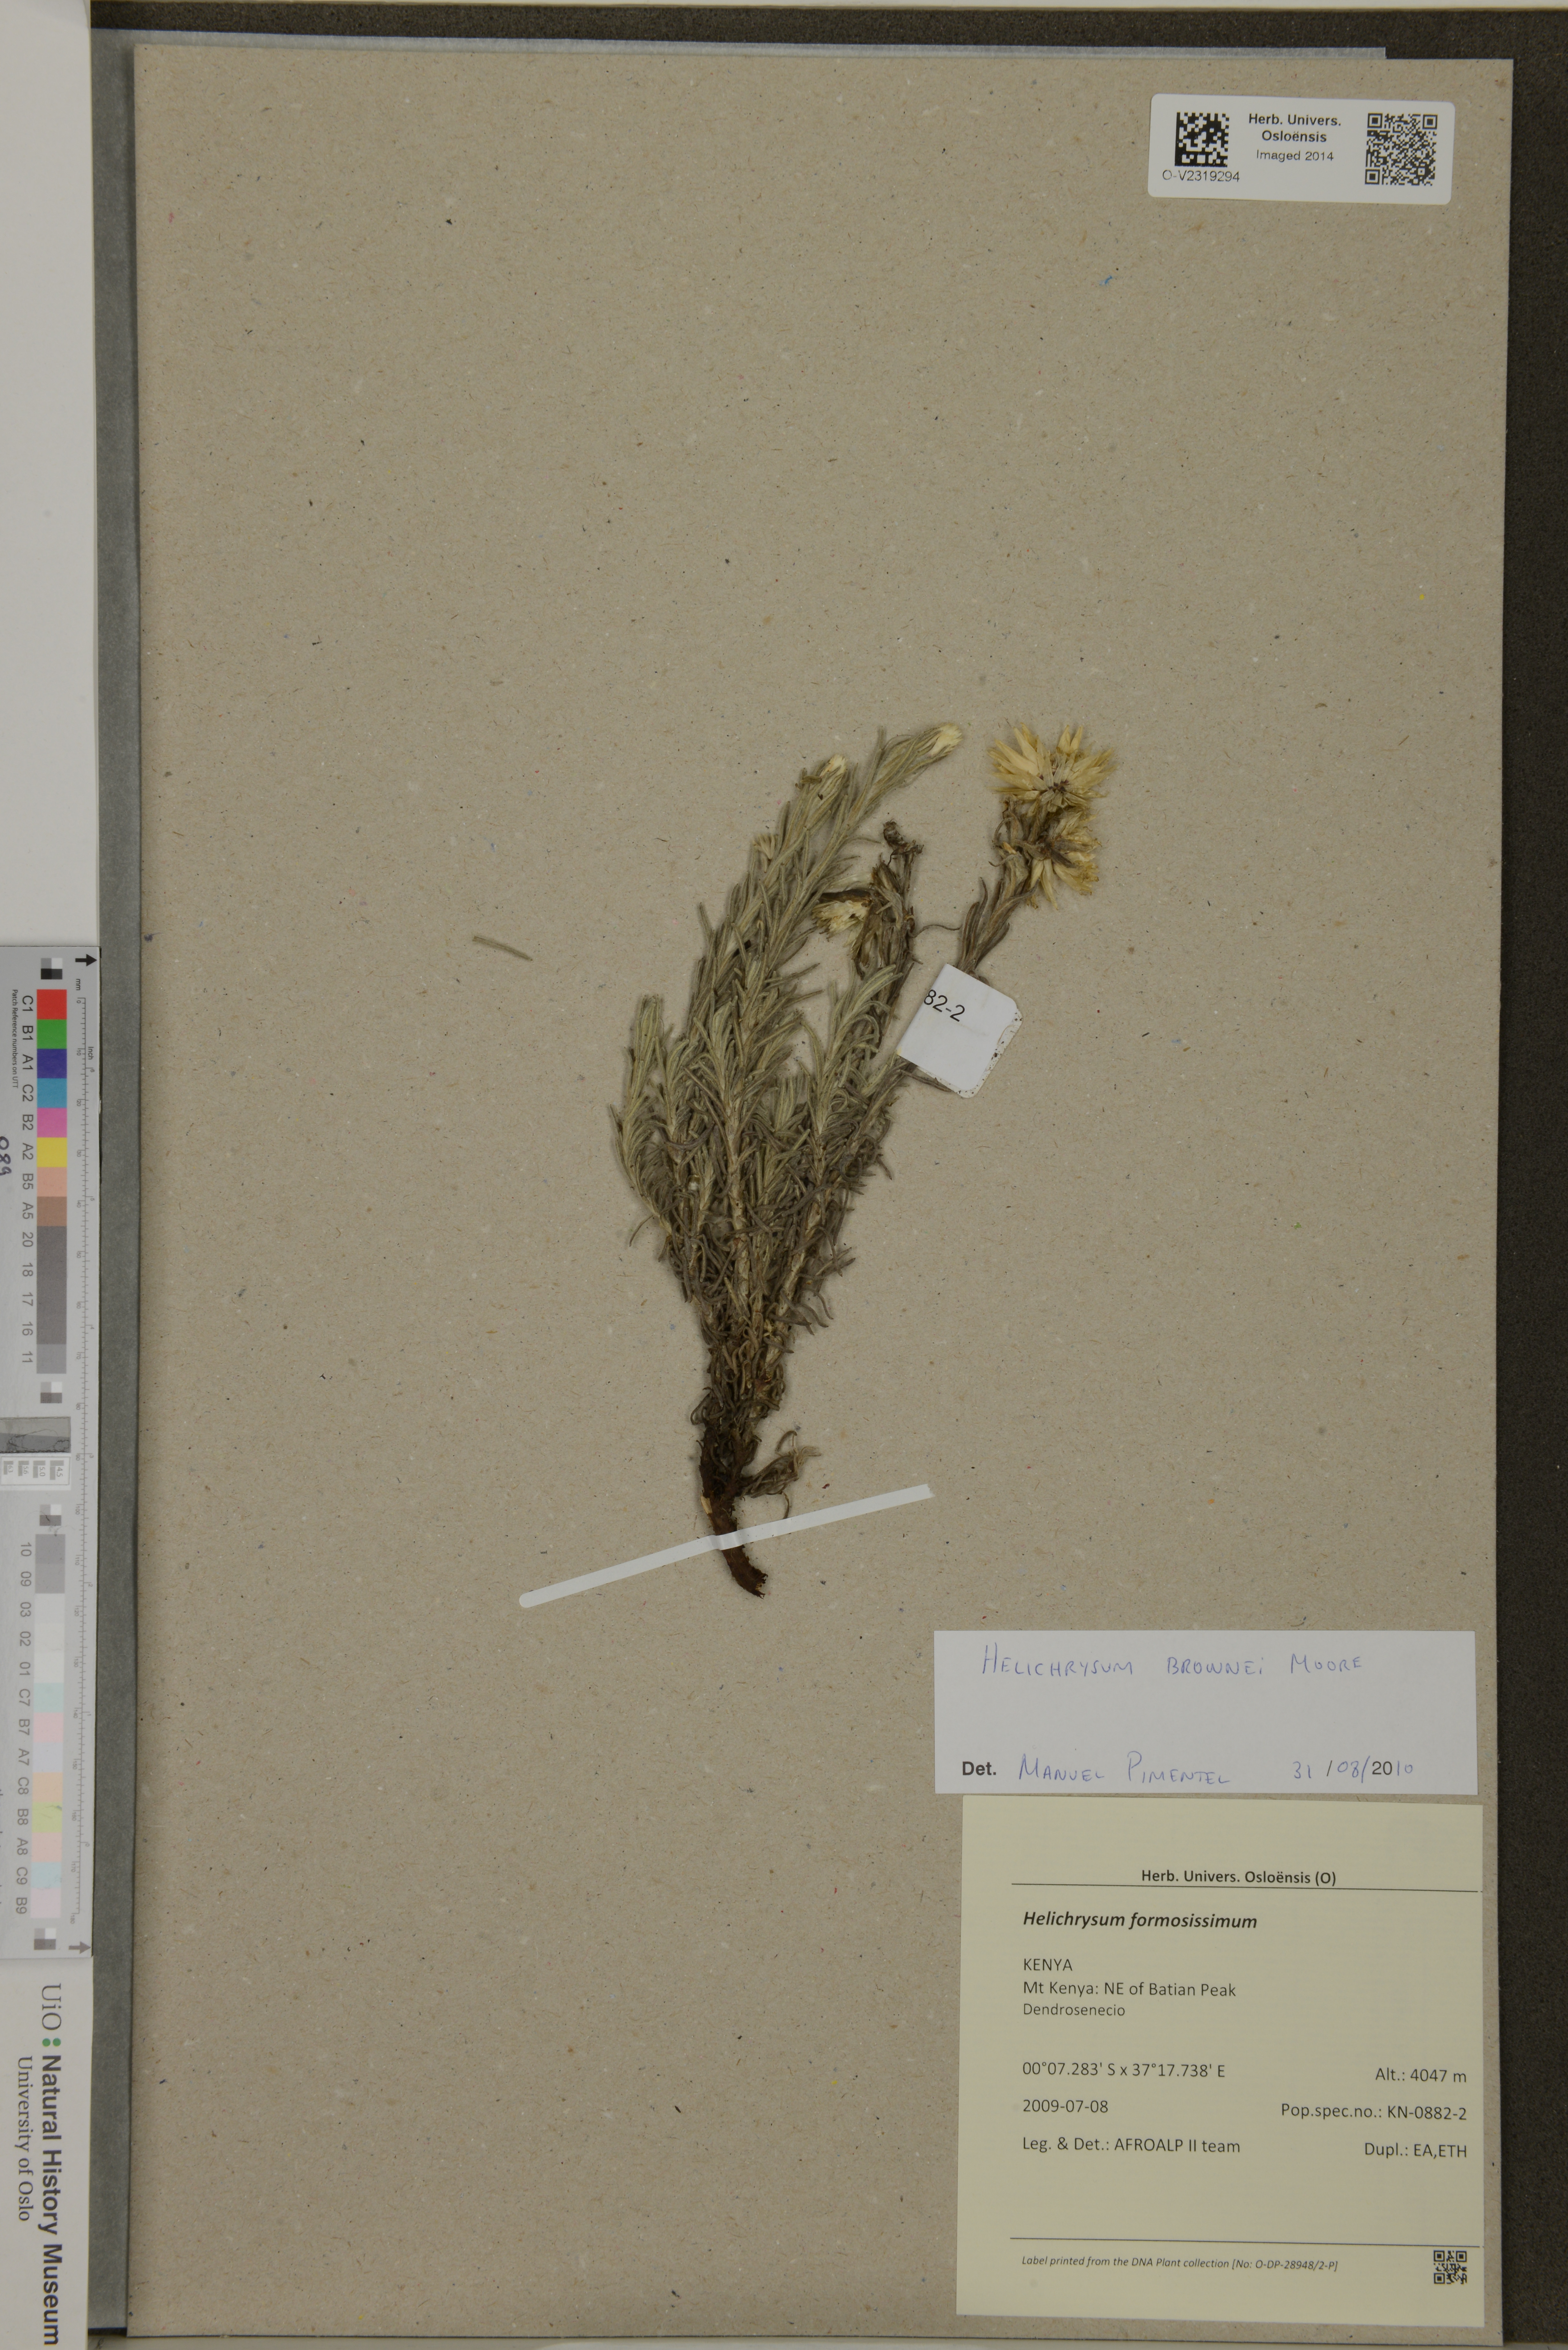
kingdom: Plantae
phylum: Tracheophyta
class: Magnoliopsida
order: Asterales
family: Asteraceae
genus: Helichrysum
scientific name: Helichrysum brownei
